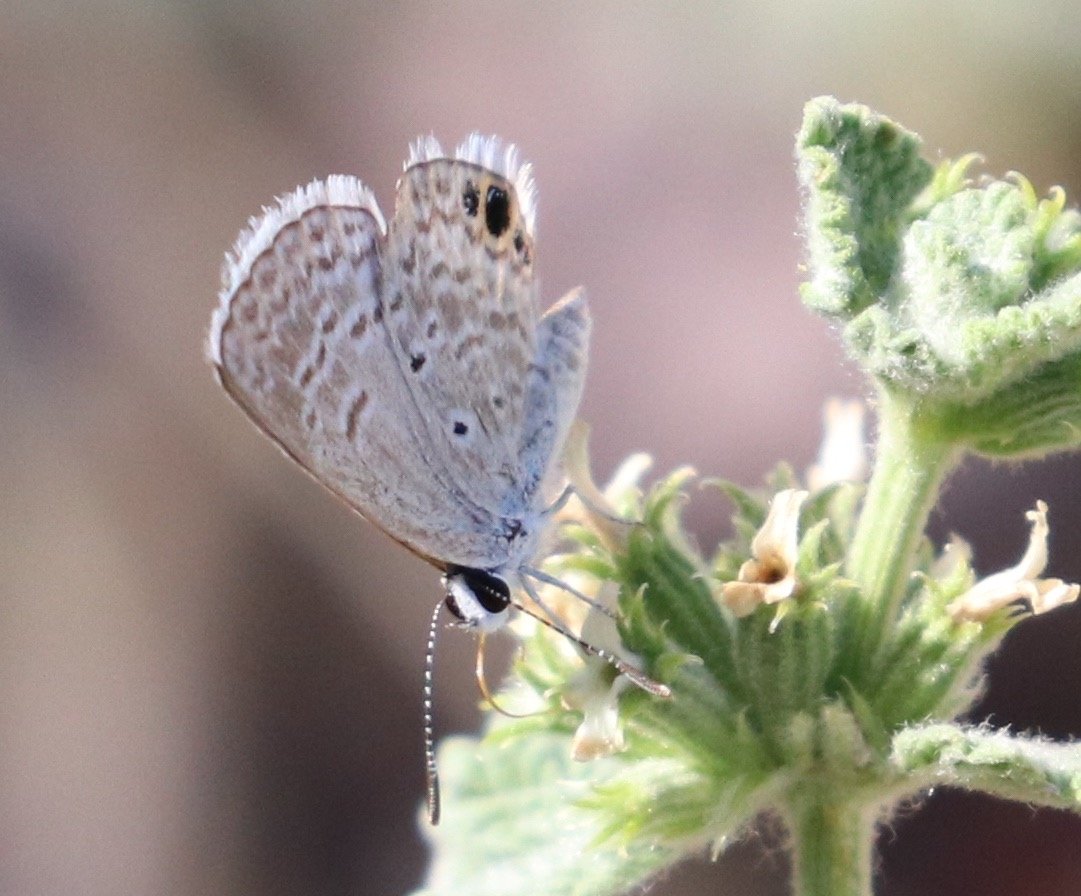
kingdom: Animalia
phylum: Arthropoda
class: Insecta
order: Lepidoptera
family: Lycaenidae
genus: Hemiargus
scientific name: Hemiargus ceraunus
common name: Ceraunus Blue
